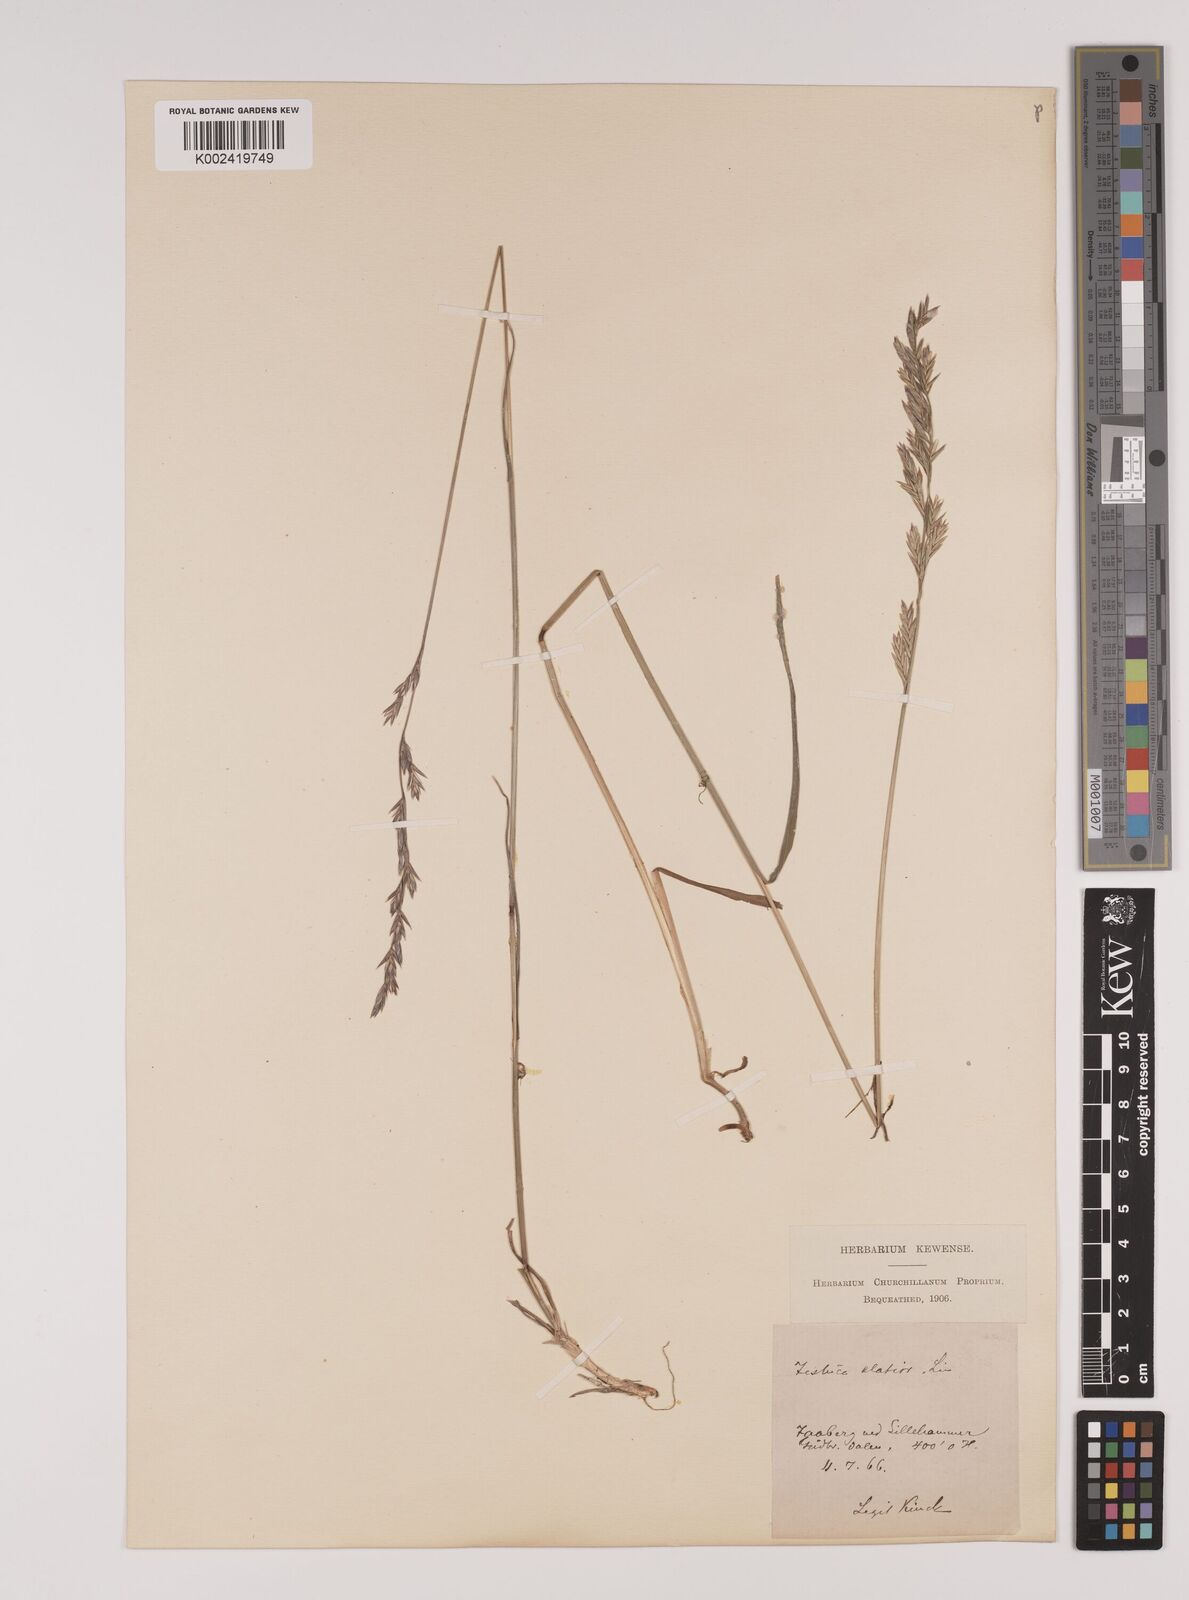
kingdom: Plantae
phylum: Tracheophyta
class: Liliopsida
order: Poales
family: Poaceae
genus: Lolium
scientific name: Lolium pratense
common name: Dover grass
